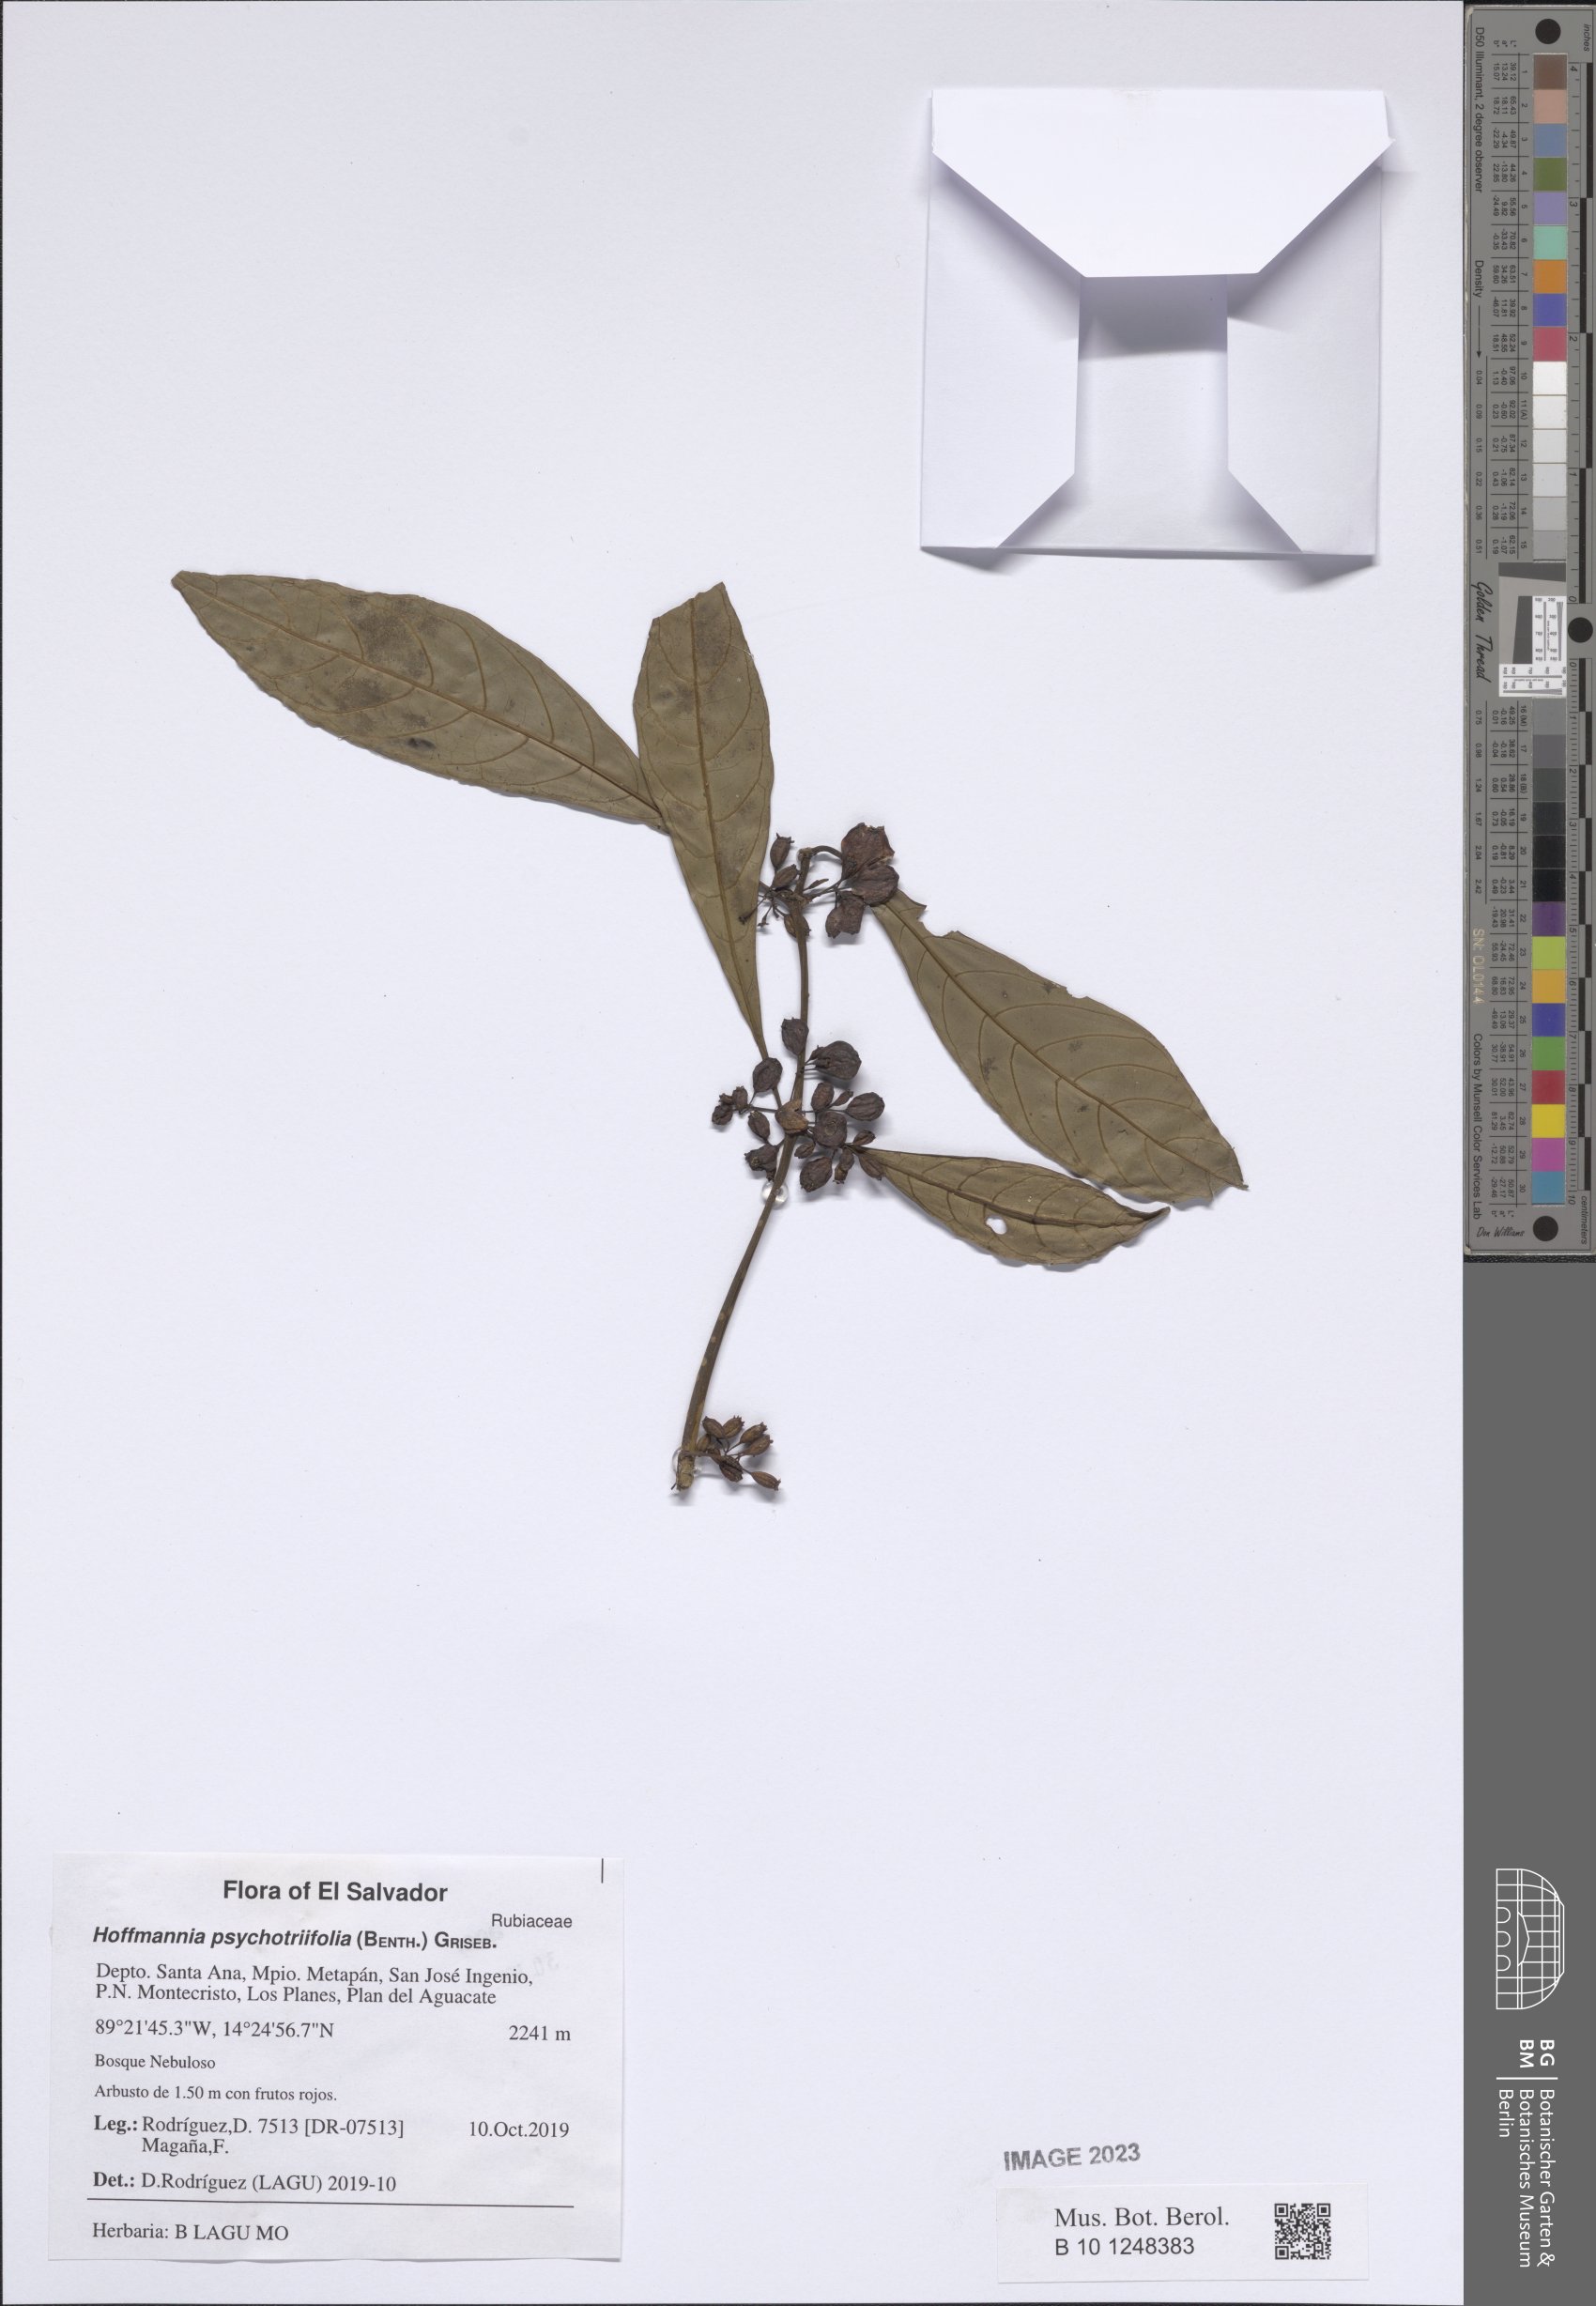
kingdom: Plantae
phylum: Tracheophyta
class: Magnoliopsida
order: Gentianales
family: Rubiaceae
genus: Hoffmannia
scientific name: Hoffmannia psychotriifolia
